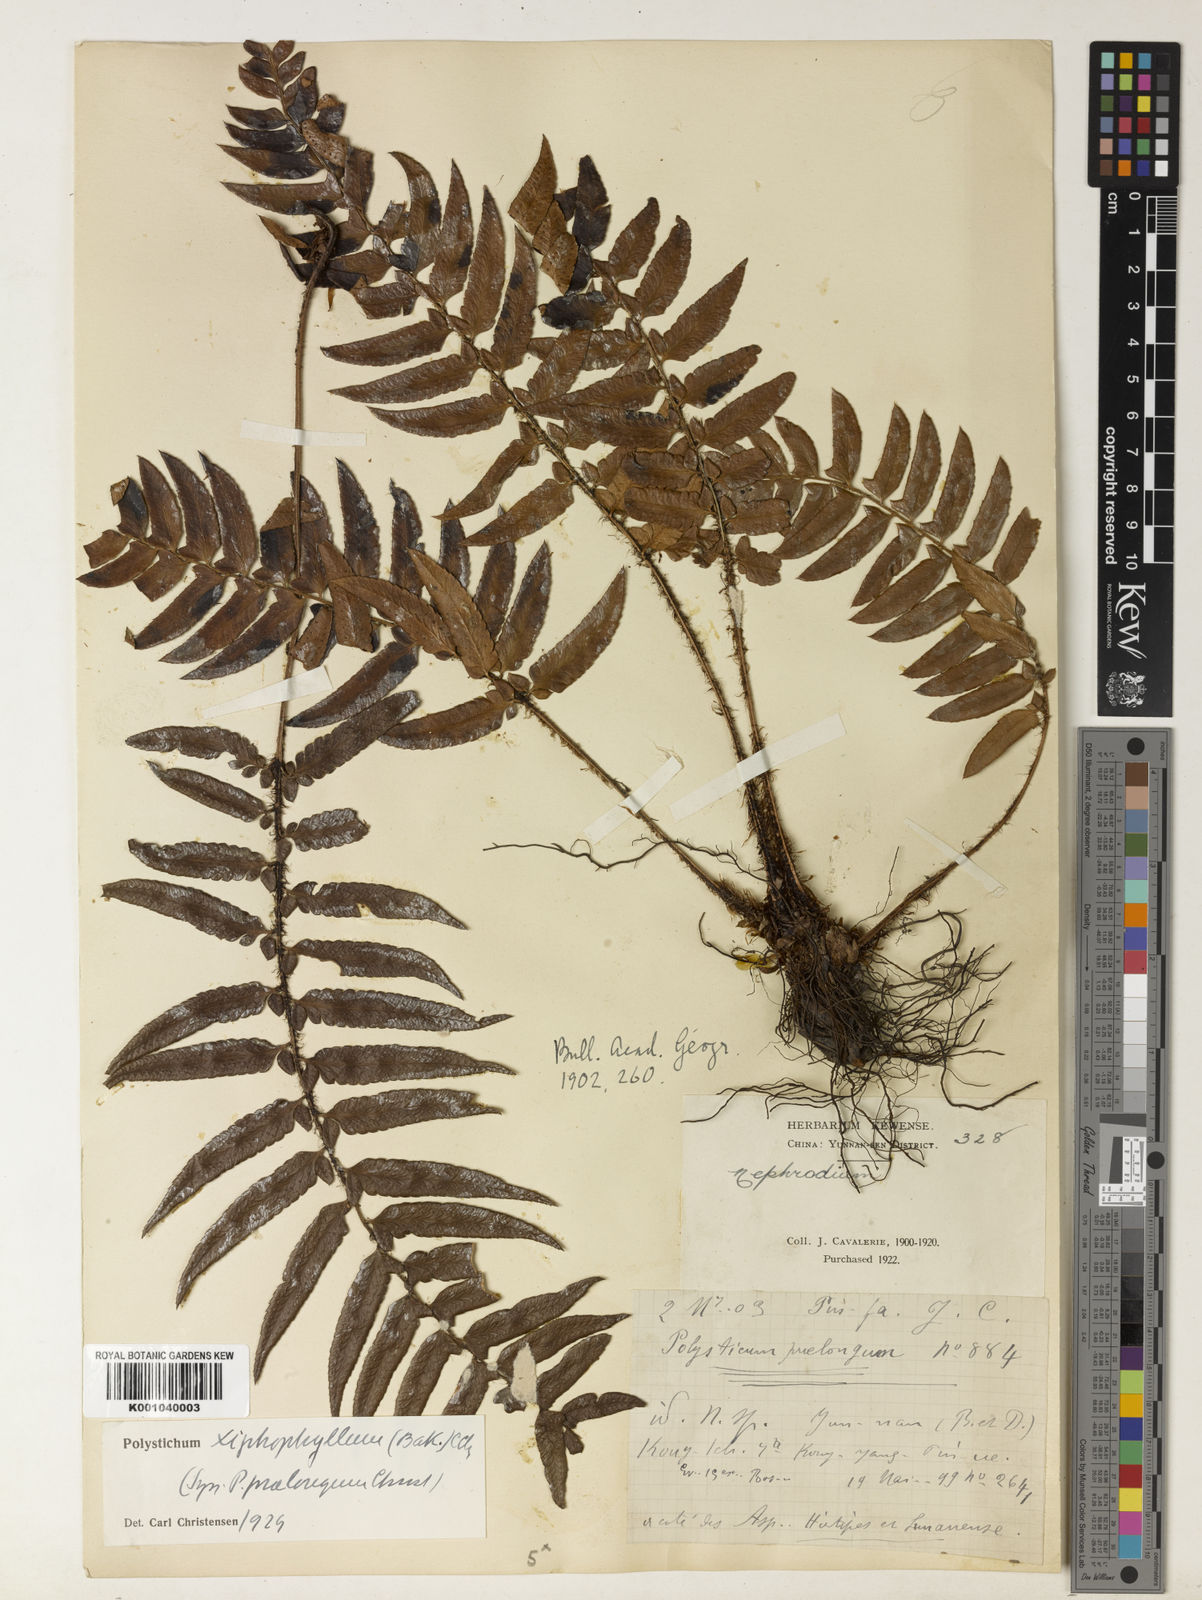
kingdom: Plantae
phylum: Tracheophyta
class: Polypodiopsida
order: Polypodiales
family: Dryopteridaceae
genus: Polystichum
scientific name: Polystichum xiphophyllum
